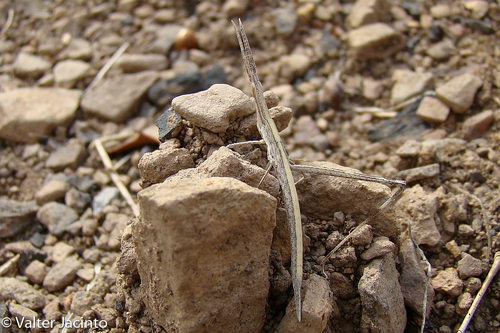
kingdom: Animalia
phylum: Arthropoda
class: Insecta
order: Orthoptera
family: Acrididae
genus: Truxalis
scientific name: Truxalis nasuta
